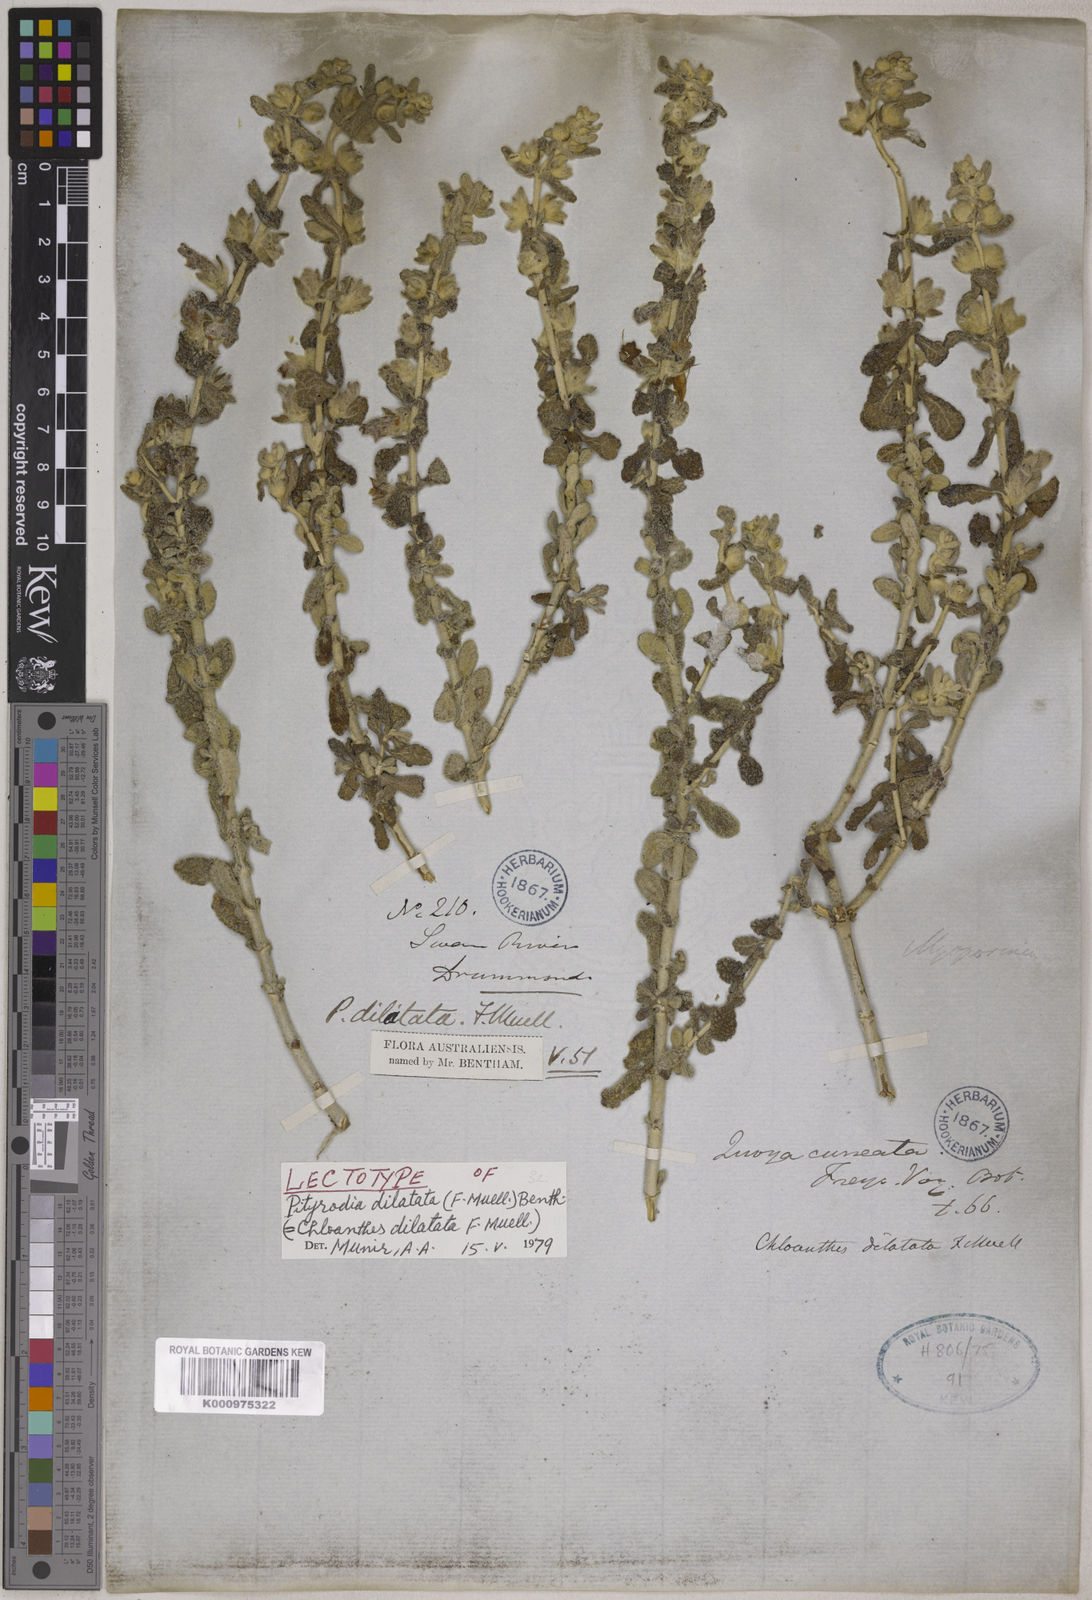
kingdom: Plantae
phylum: Tracheophyta
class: Magnoliopsida
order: Lamiales
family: Lamiaceae
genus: Quoya
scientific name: Quoya dilatata
